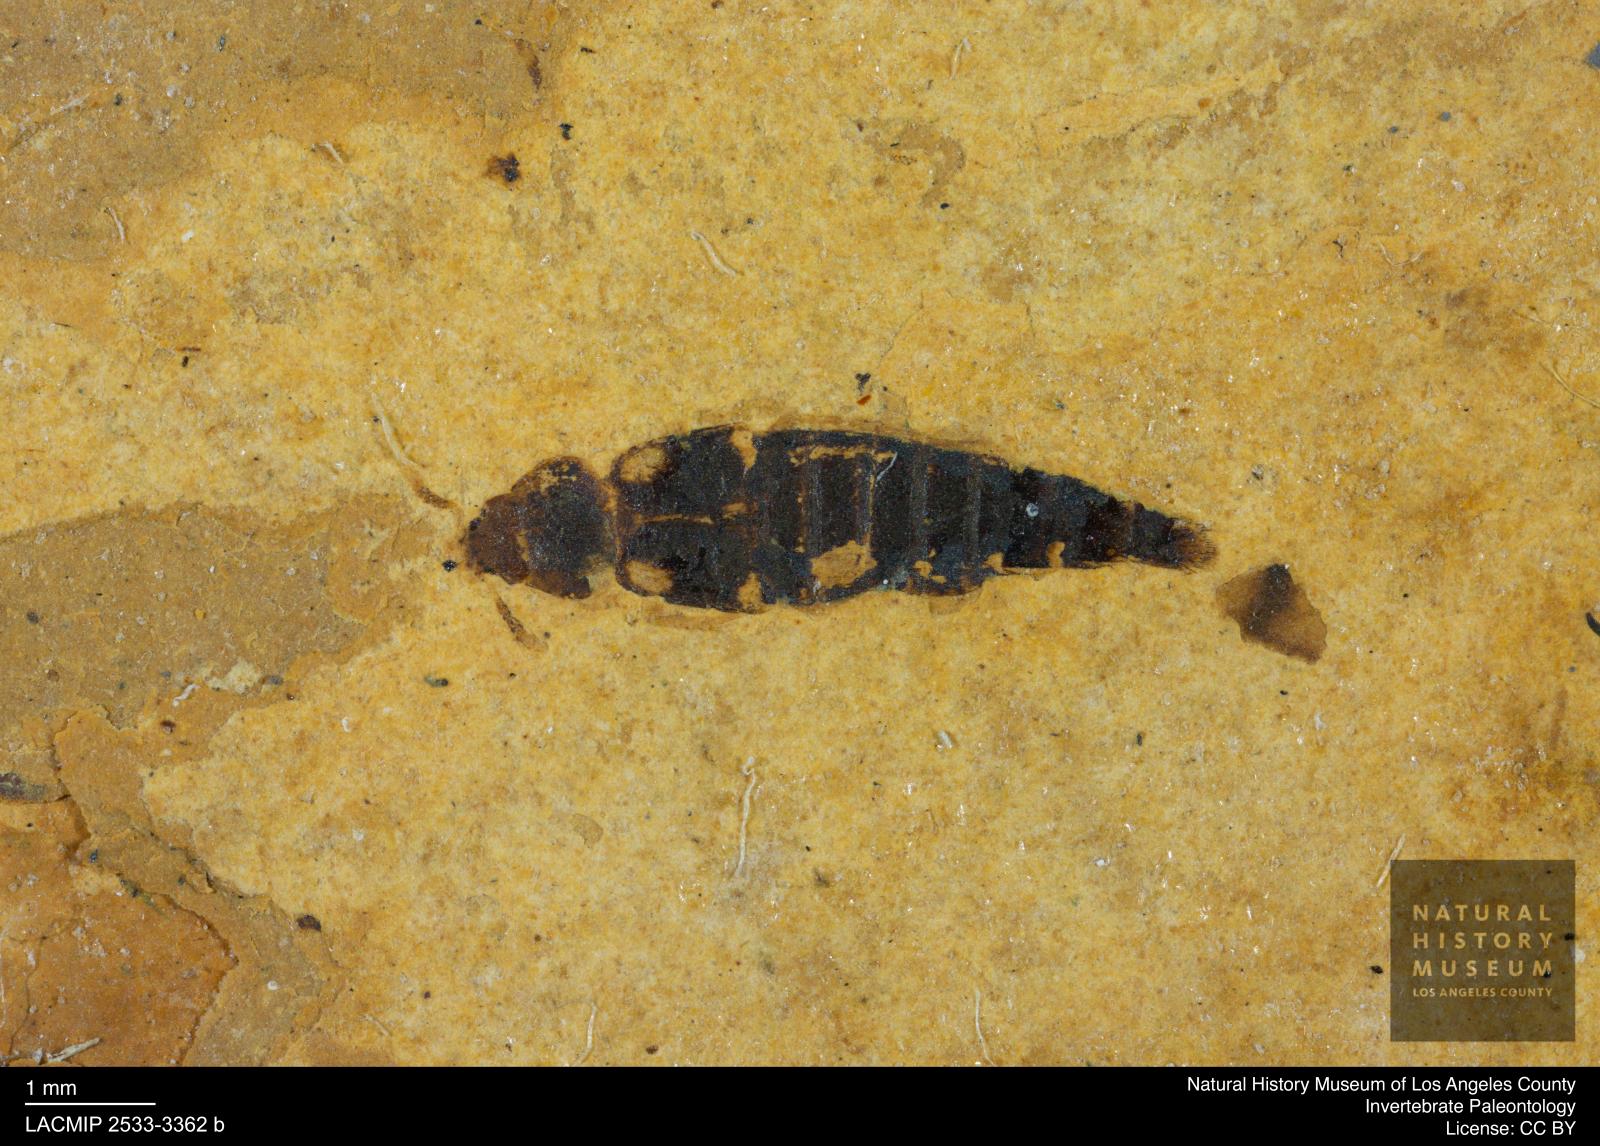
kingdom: Animalia
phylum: Arthropoda
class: Insecta
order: Coleoptera
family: Staphylinidae
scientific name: Staphylinidae
